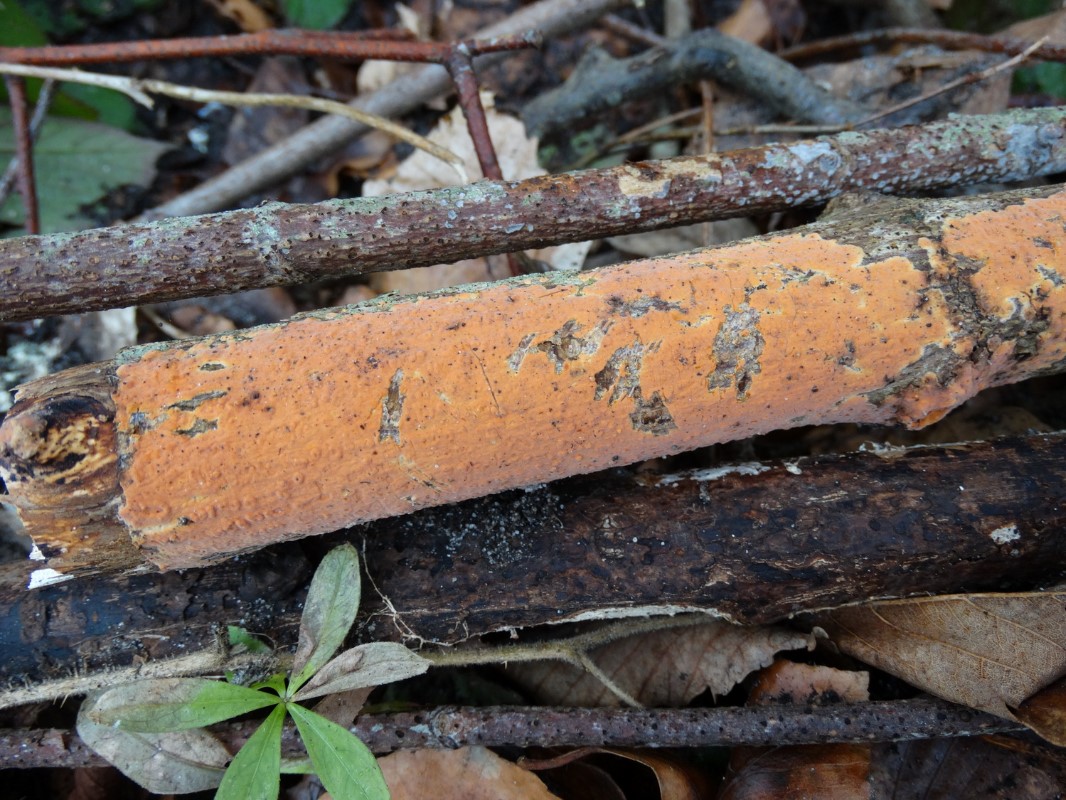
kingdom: Fungi
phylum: Basidiomycota
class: Agaricomycetes
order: Russulales
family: Peniophoraceae
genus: Peniophora
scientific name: Peniophora incarnata
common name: laksefarvet voksskind
